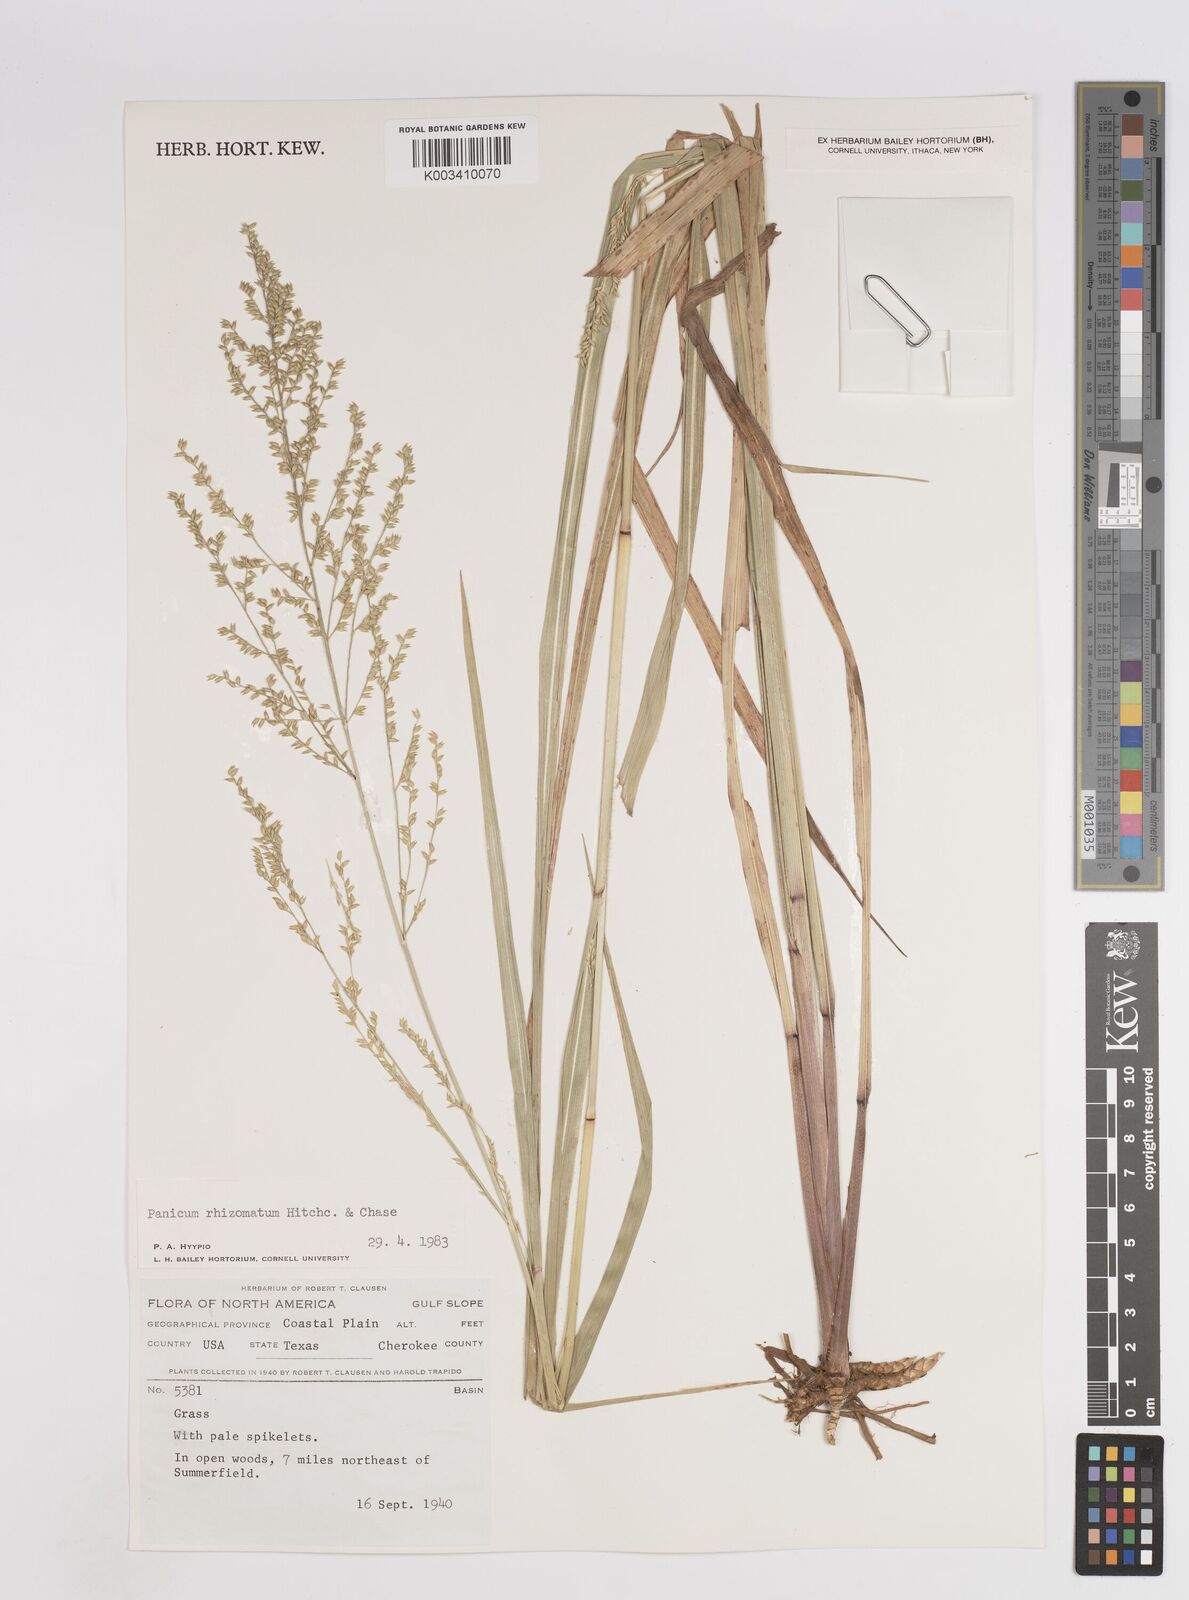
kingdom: Plantae
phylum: Tracheophyta
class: Liliopsida
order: Poales
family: Poaceae
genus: Coleataenia
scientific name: Coleataenia anceps
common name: Beaked panic grass
